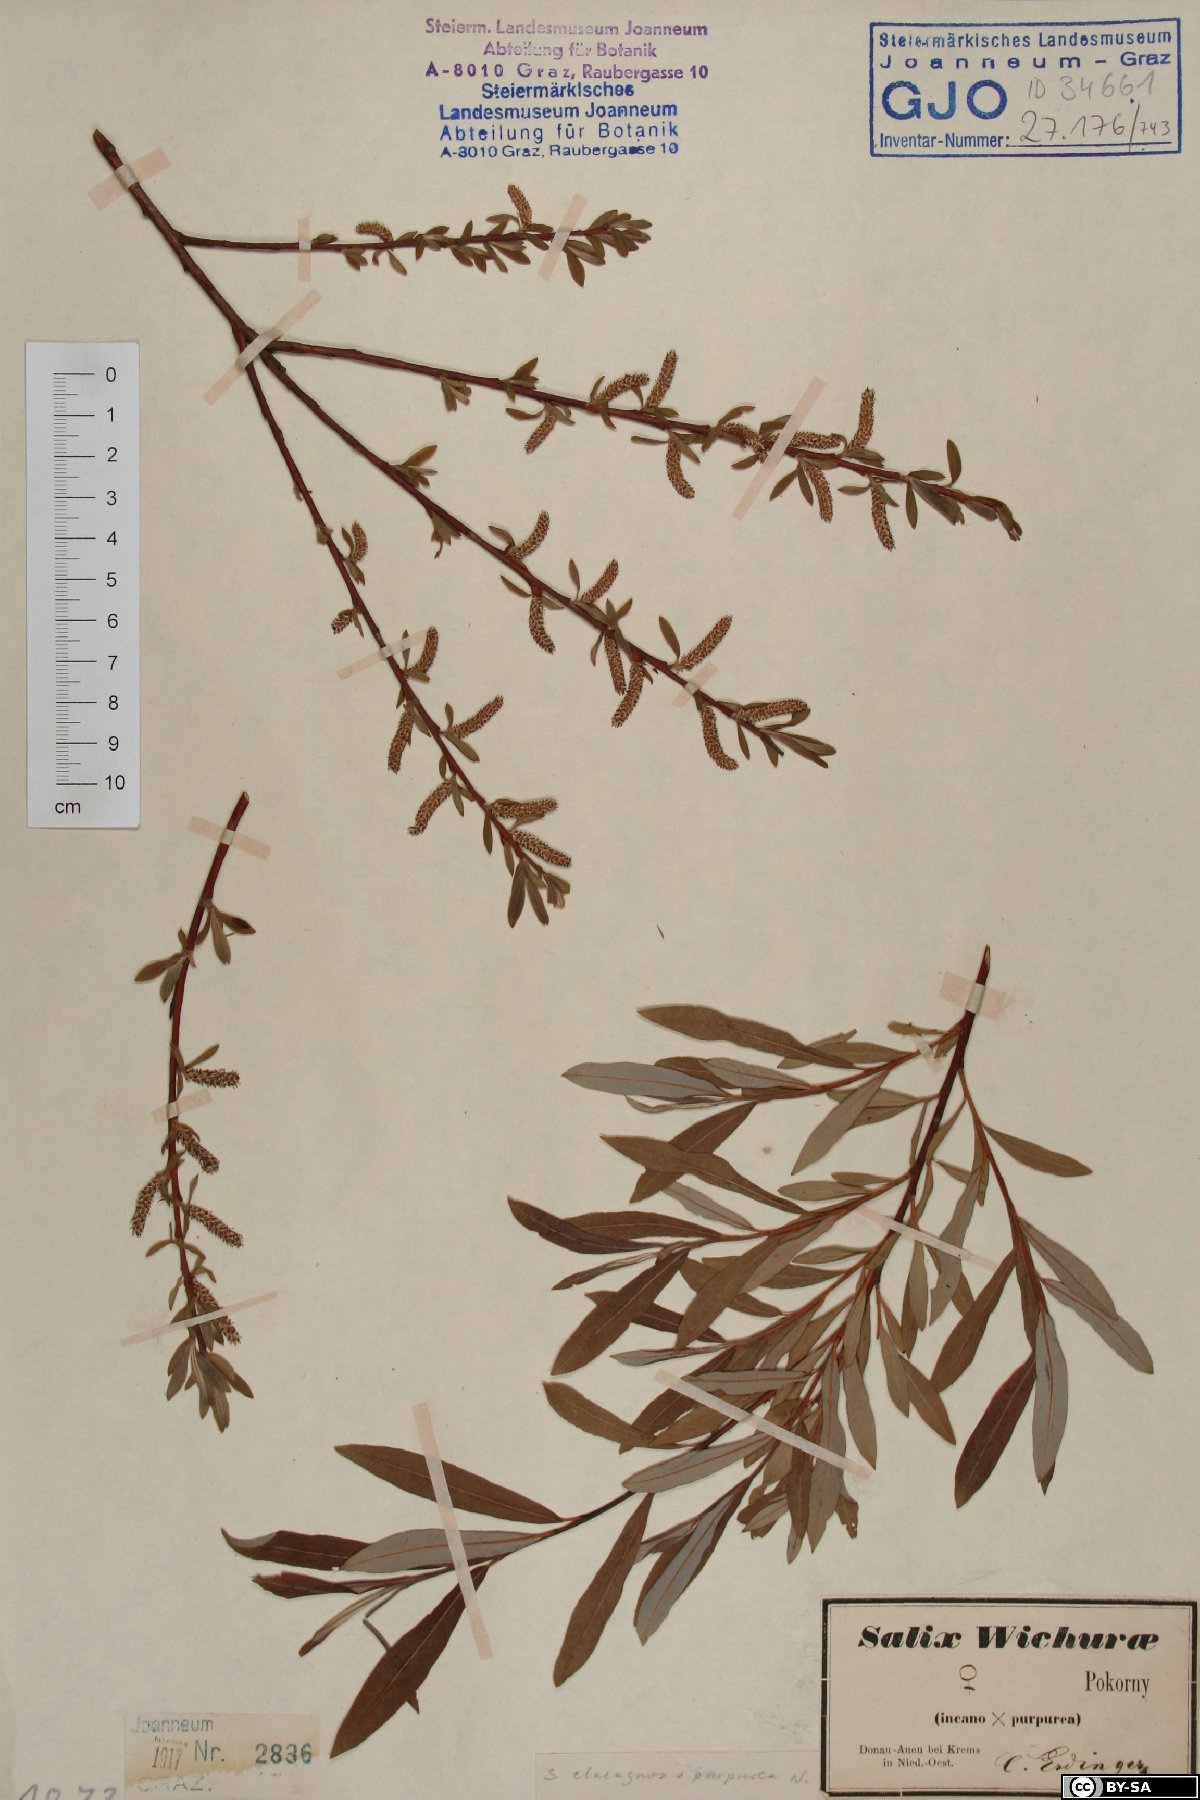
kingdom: Plantae
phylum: Tracheophyta
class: Magnoliopsida
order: Malpighiales
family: Salicaceae
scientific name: Salicaceae
